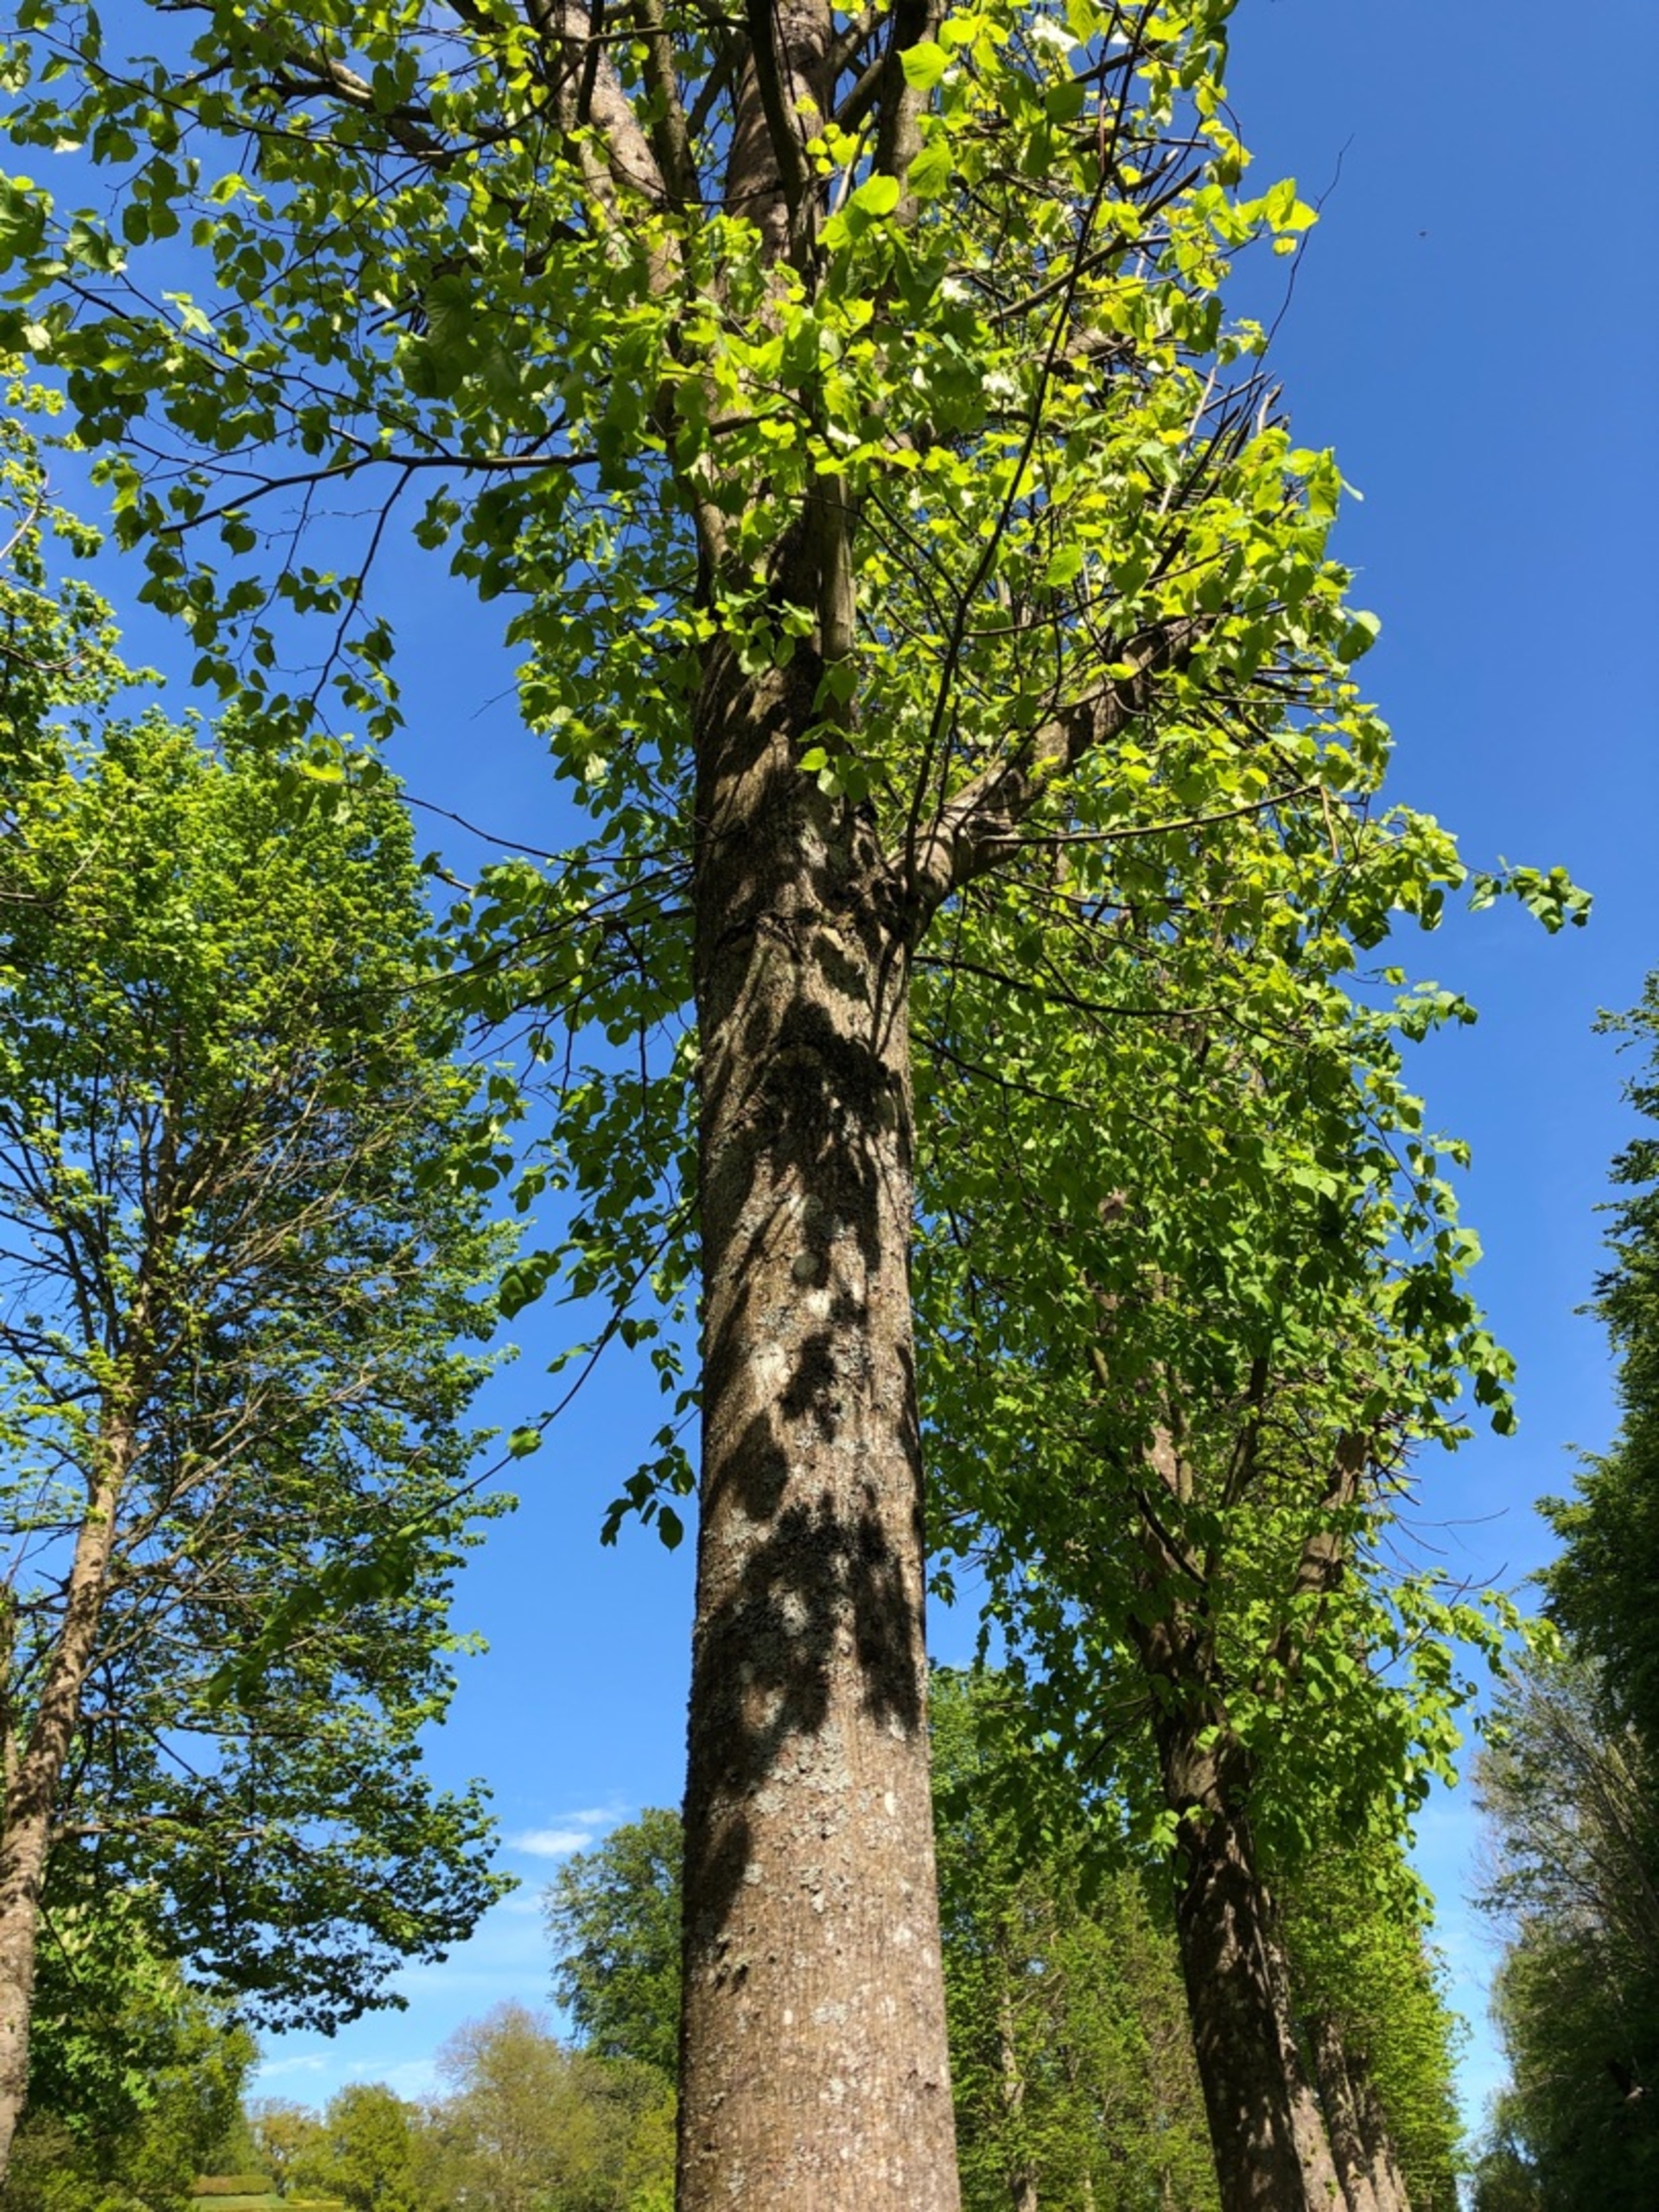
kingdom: Plantae
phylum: Tracheophyta
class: Magnoliopsida
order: Malvales
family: Malvaceae
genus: Tilia
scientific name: Tilia
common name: Lindeslægten
